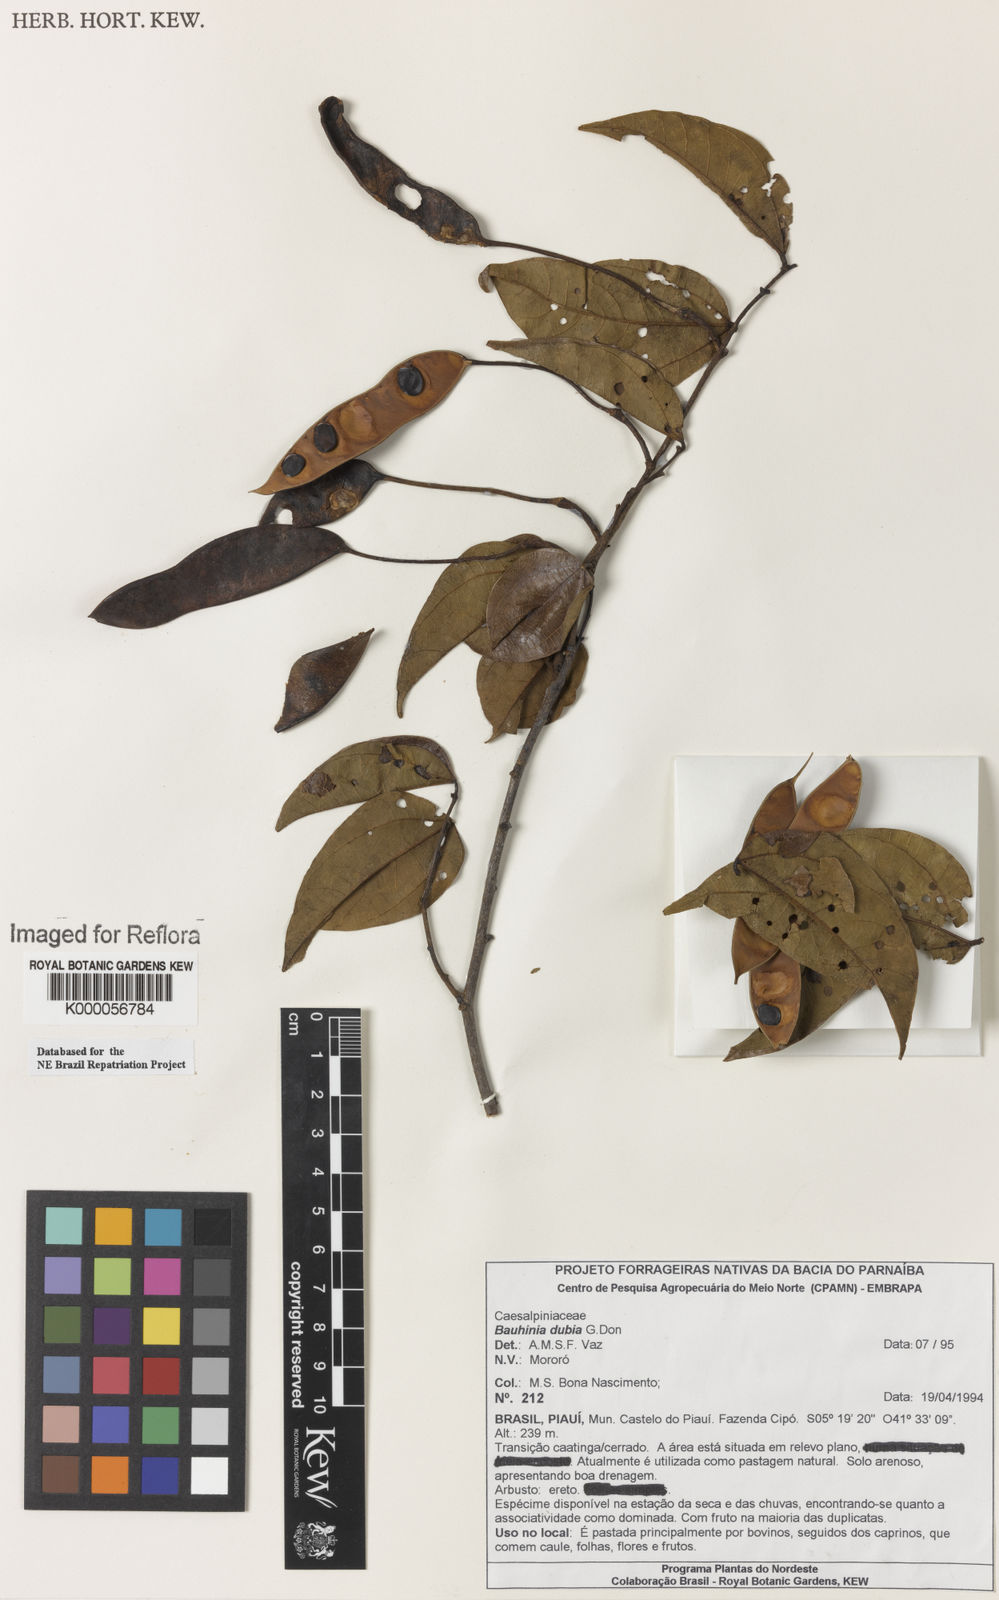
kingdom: Plantae
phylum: Tracheophyta
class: Magnoliopsida
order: Fabales
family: Fabaceae
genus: Bauhinia
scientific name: Bauhinia dubia
